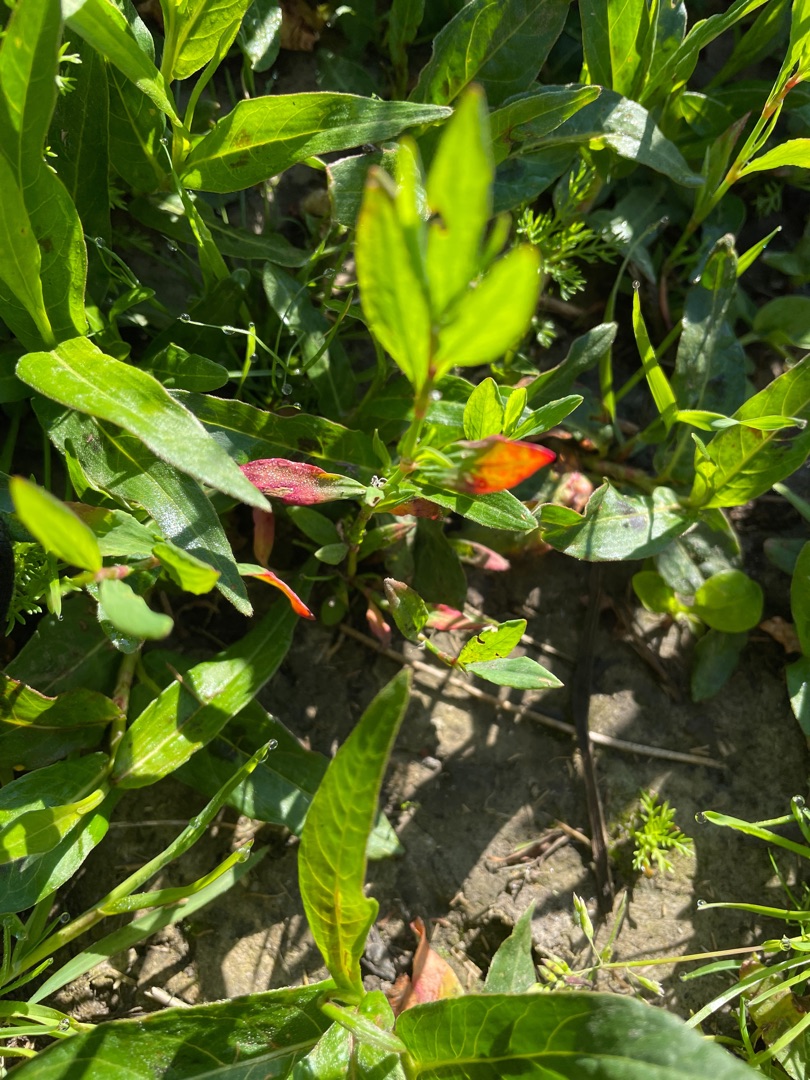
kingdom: Plantae
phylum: Tracheophyta
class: Magnoliopsida
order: Caryophyllales
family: Polygonaceae
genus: Persicaria
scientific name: Persicaria amphibia
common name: Vand-pileurt
